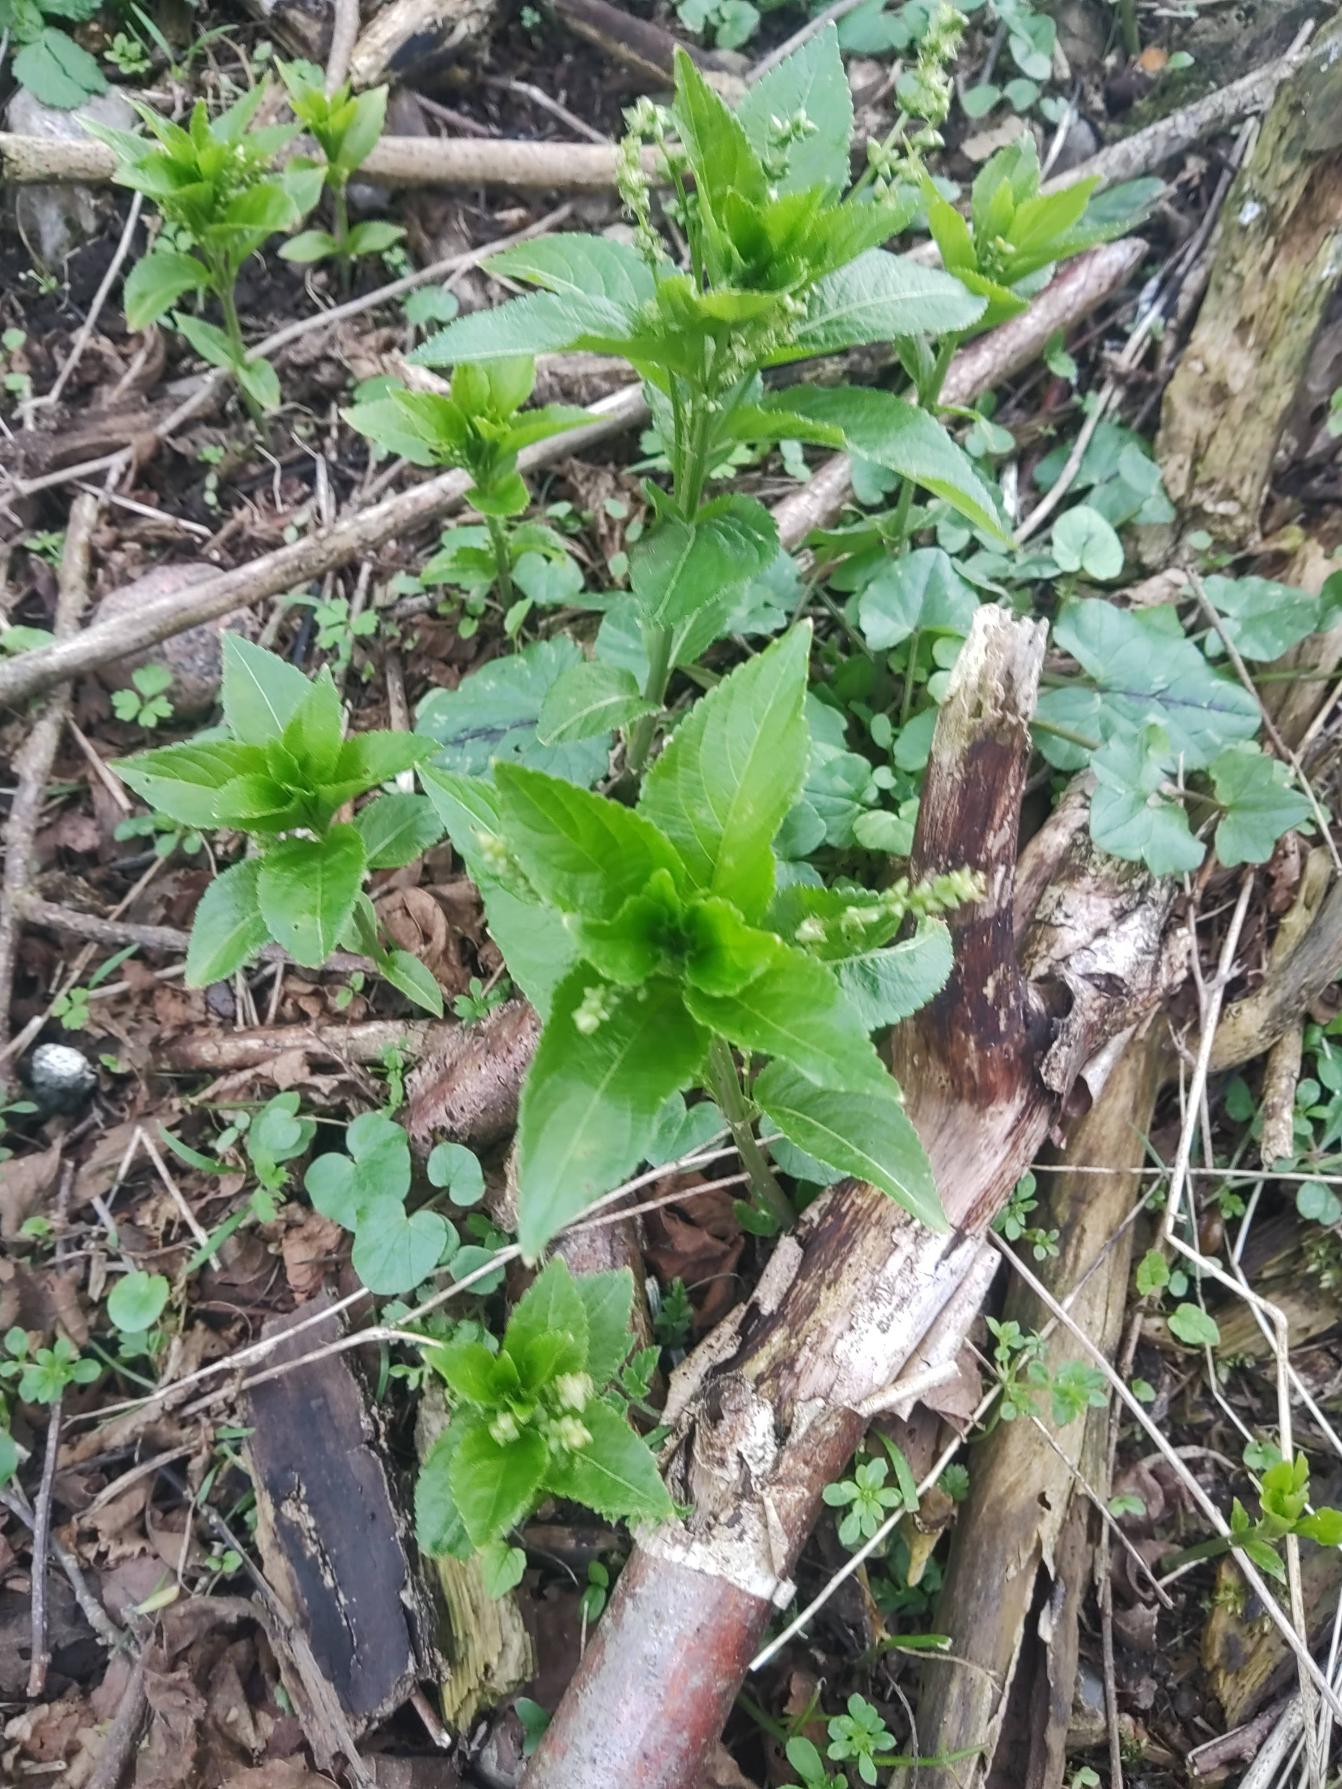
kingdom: Plantae
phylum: Tracheophyta
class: Magnoliopsida
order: Malpighiales
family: Euphorbiaceae
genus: Mercurialis
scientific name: Mercurialis perennis
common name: Almindelig bingelurt
